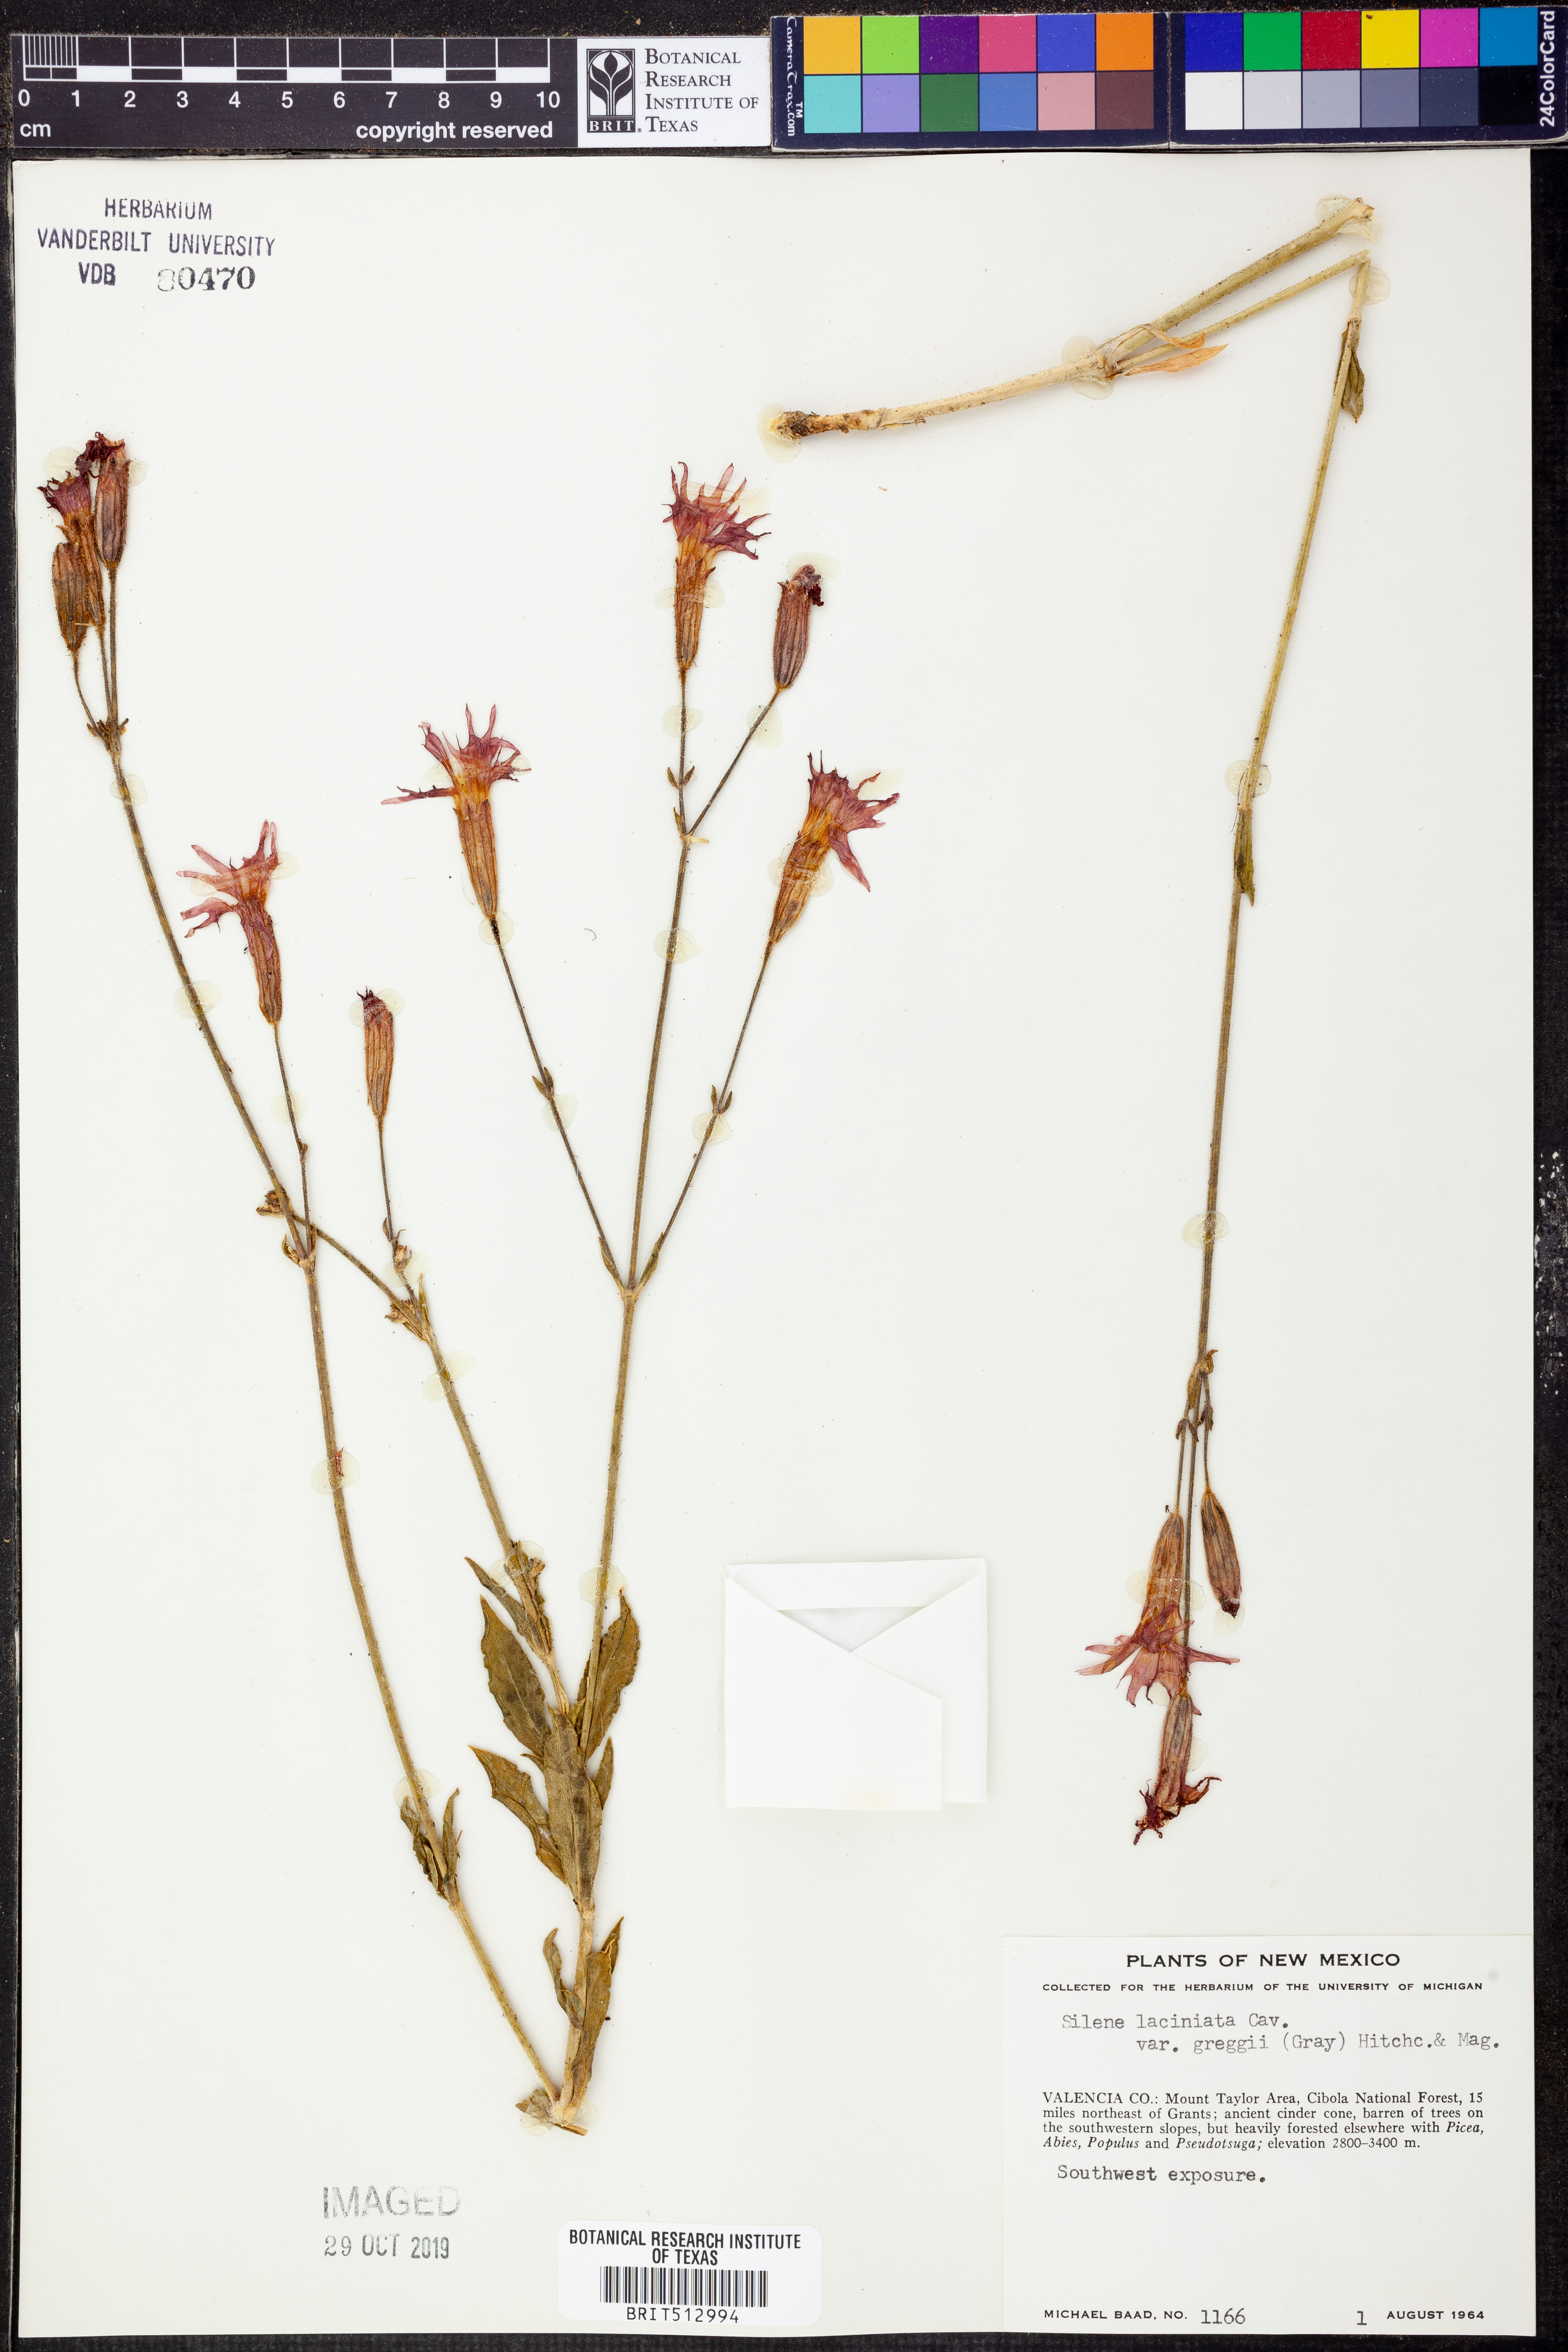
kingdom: Plantae
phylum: Tracheophyta
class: Magnoliopsida
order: Caryophyllales
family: Caryophyllaceae
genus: Silene
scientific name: Silene laciniata
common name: Indian-pink
